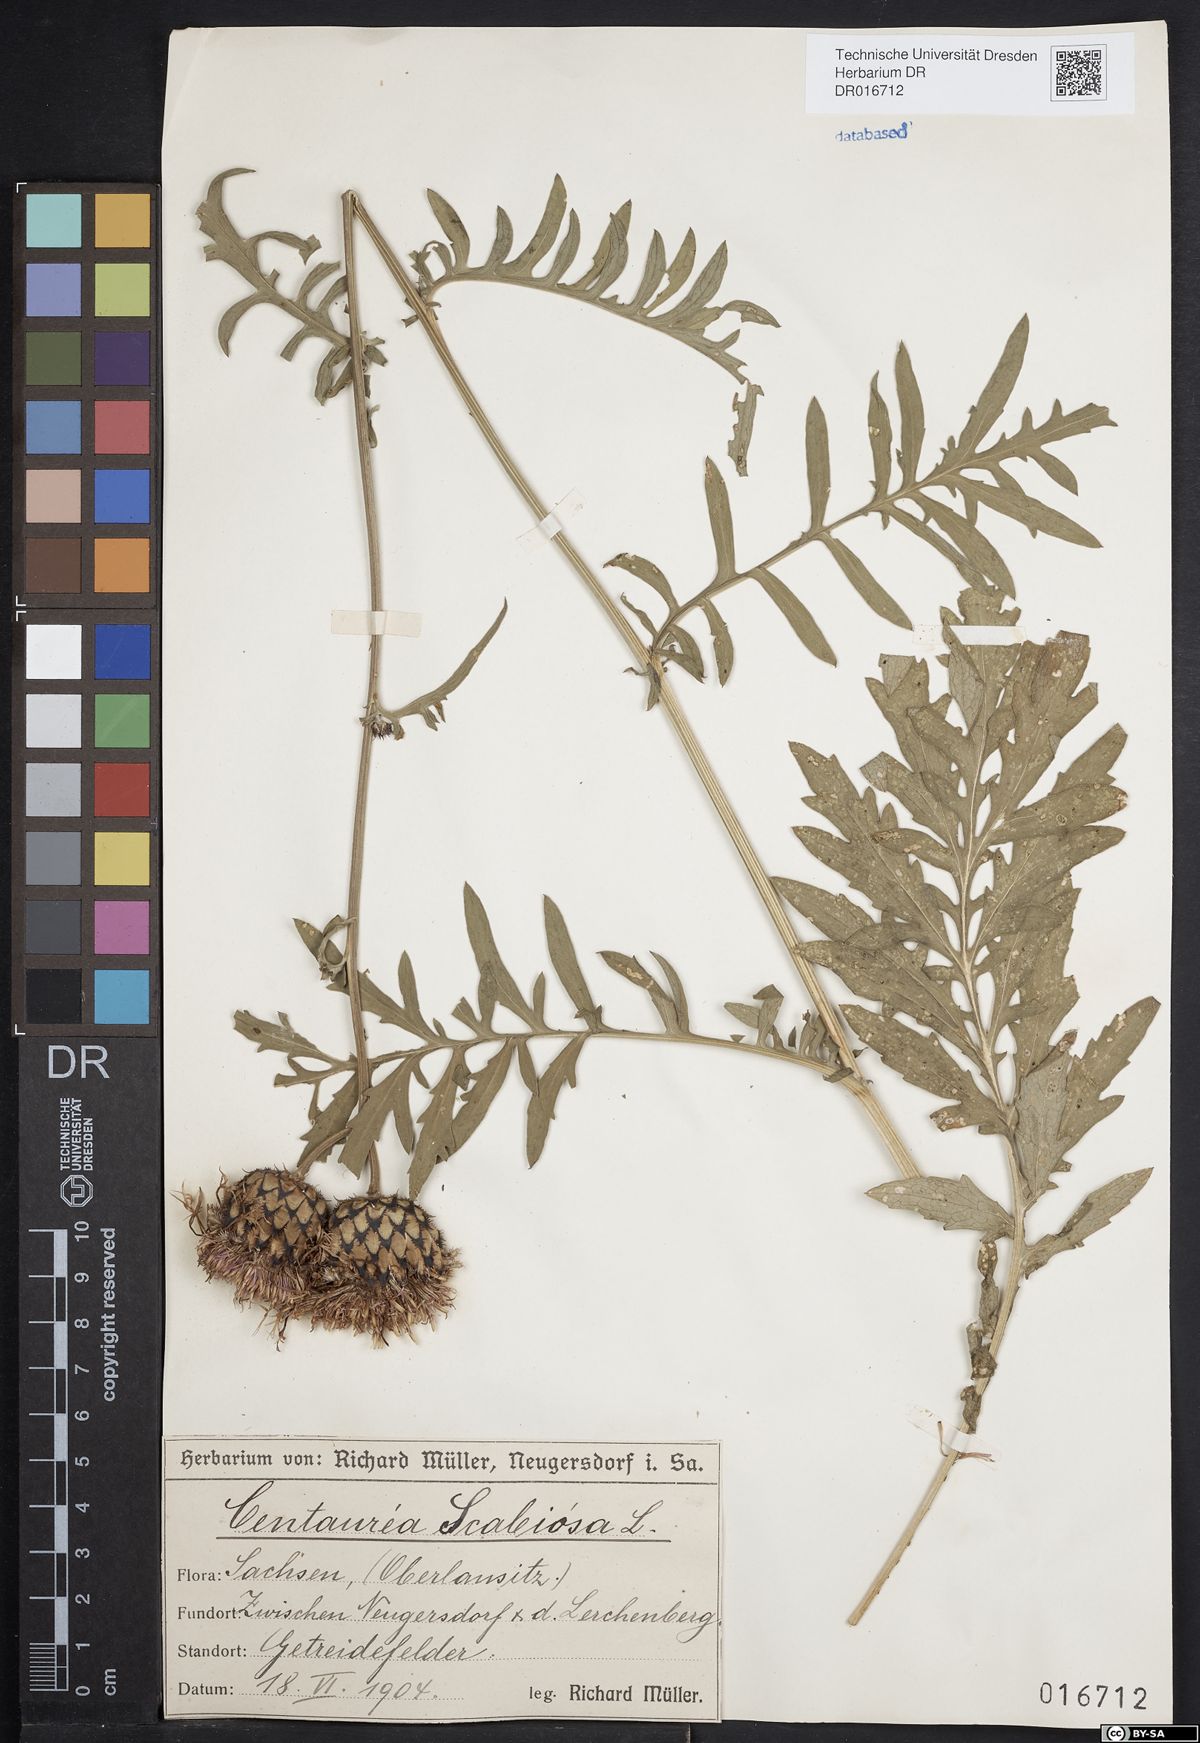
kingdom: Plantae
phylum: Tracheophyta
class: Magnoliopsida
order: Asterales
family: Asteraceae
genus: Centaurea
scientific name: Centaurea scabiosa
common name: Greater knapweed
